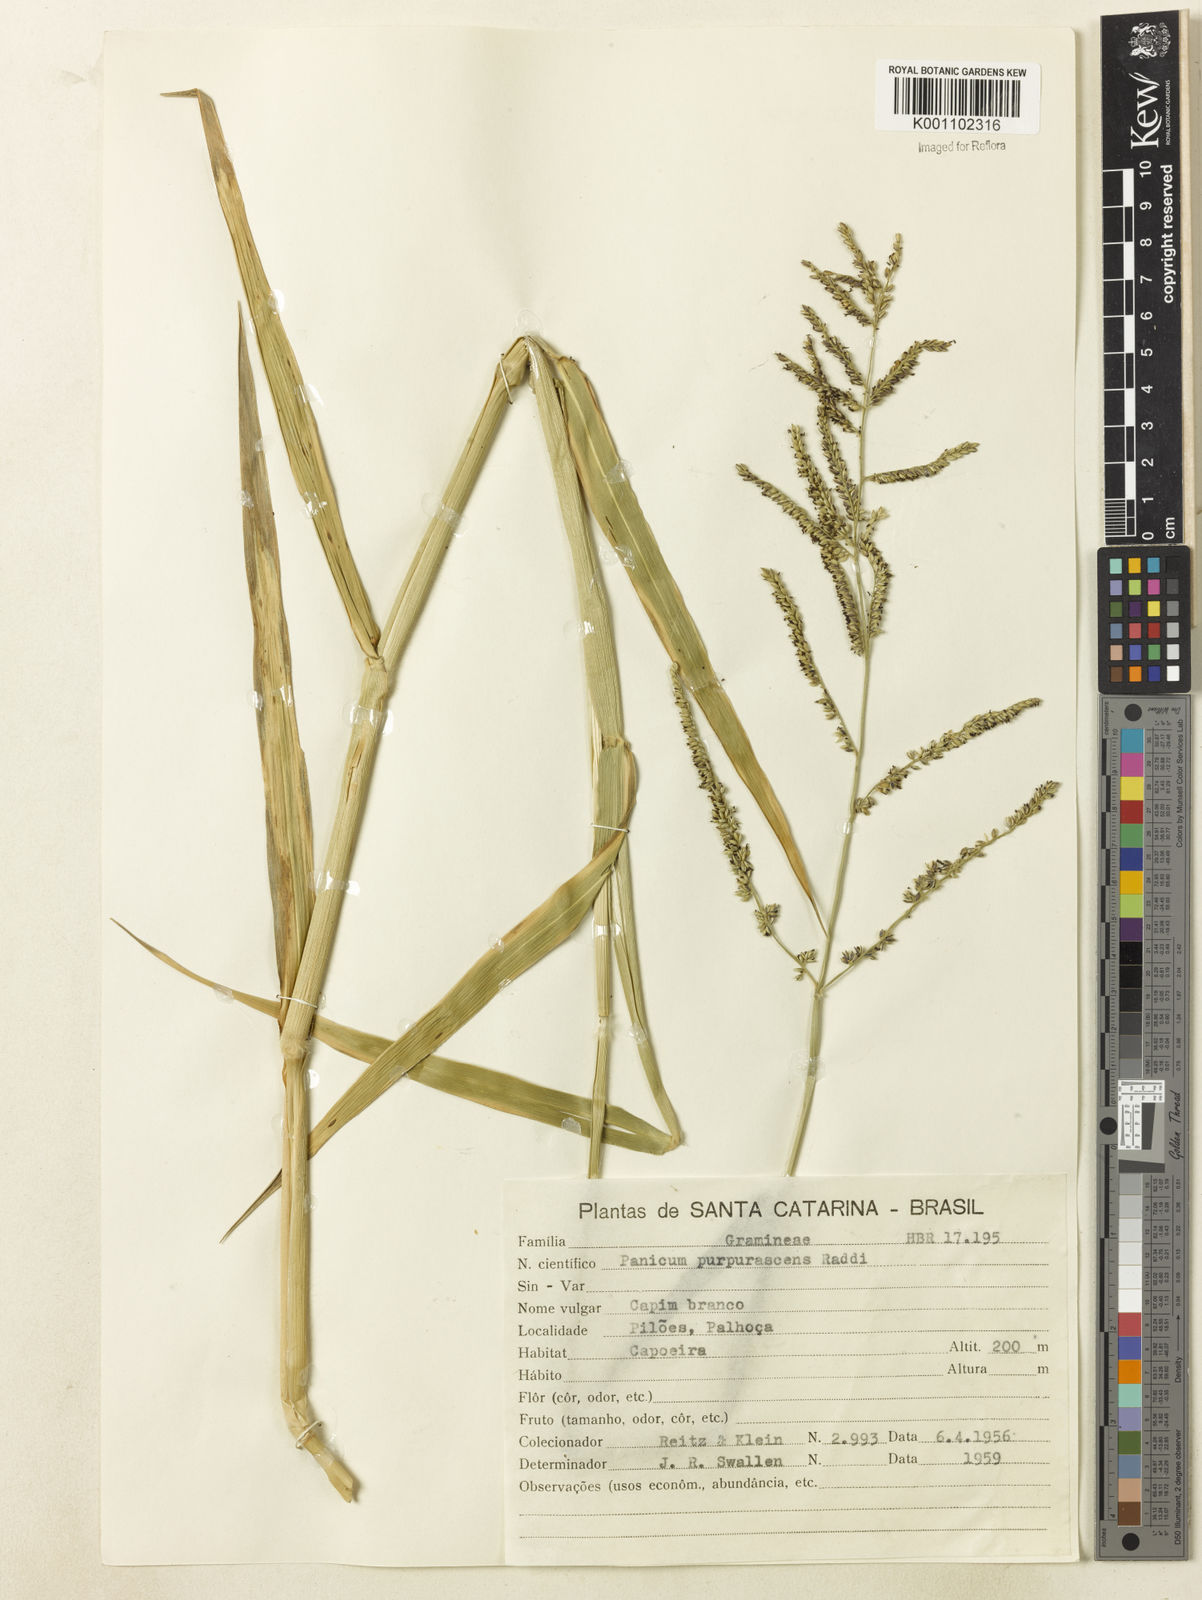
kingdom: Plantae
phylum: Tracheophyta
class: Liliopsida
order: Poales
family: Poaceae
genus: Urochloa
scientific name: Urochloa mutica
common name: Para grass
